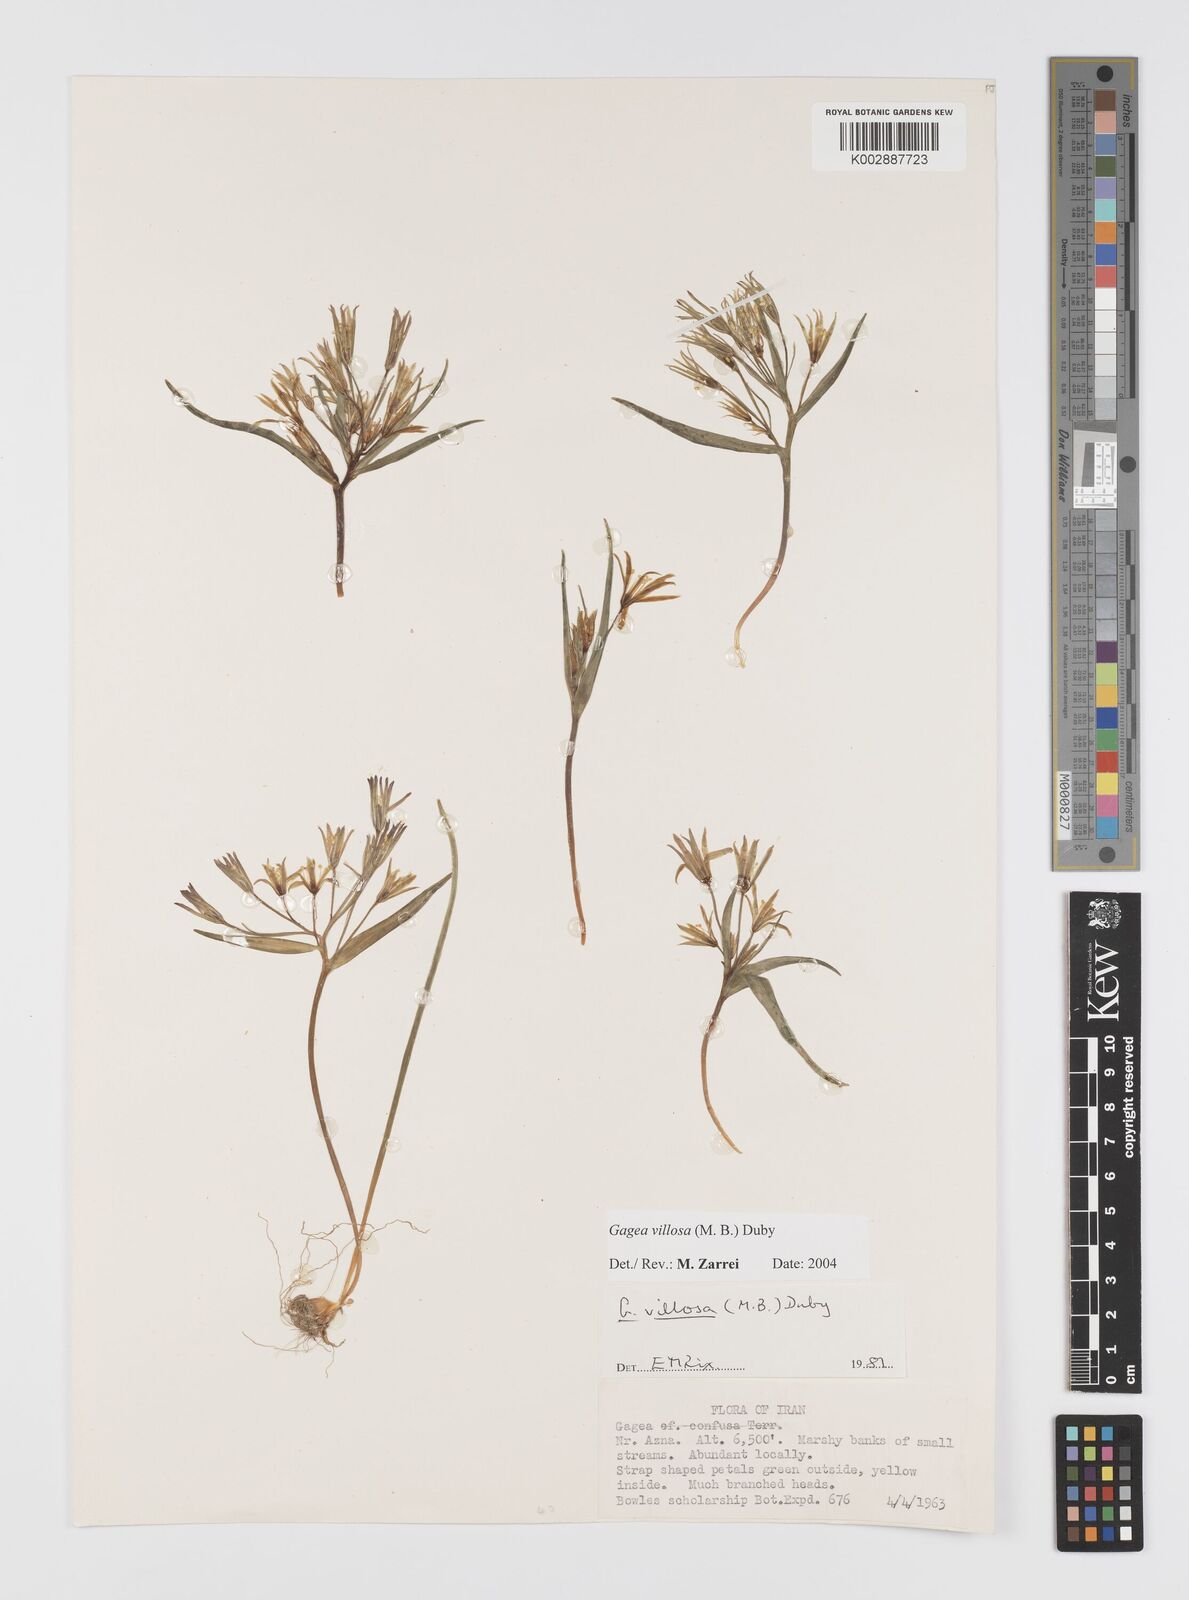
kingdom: Plantae
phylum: Tracheophyta
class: Liliopsida
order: Liliales
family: Liliaceae
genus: Gagea
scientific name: Gagea minima
